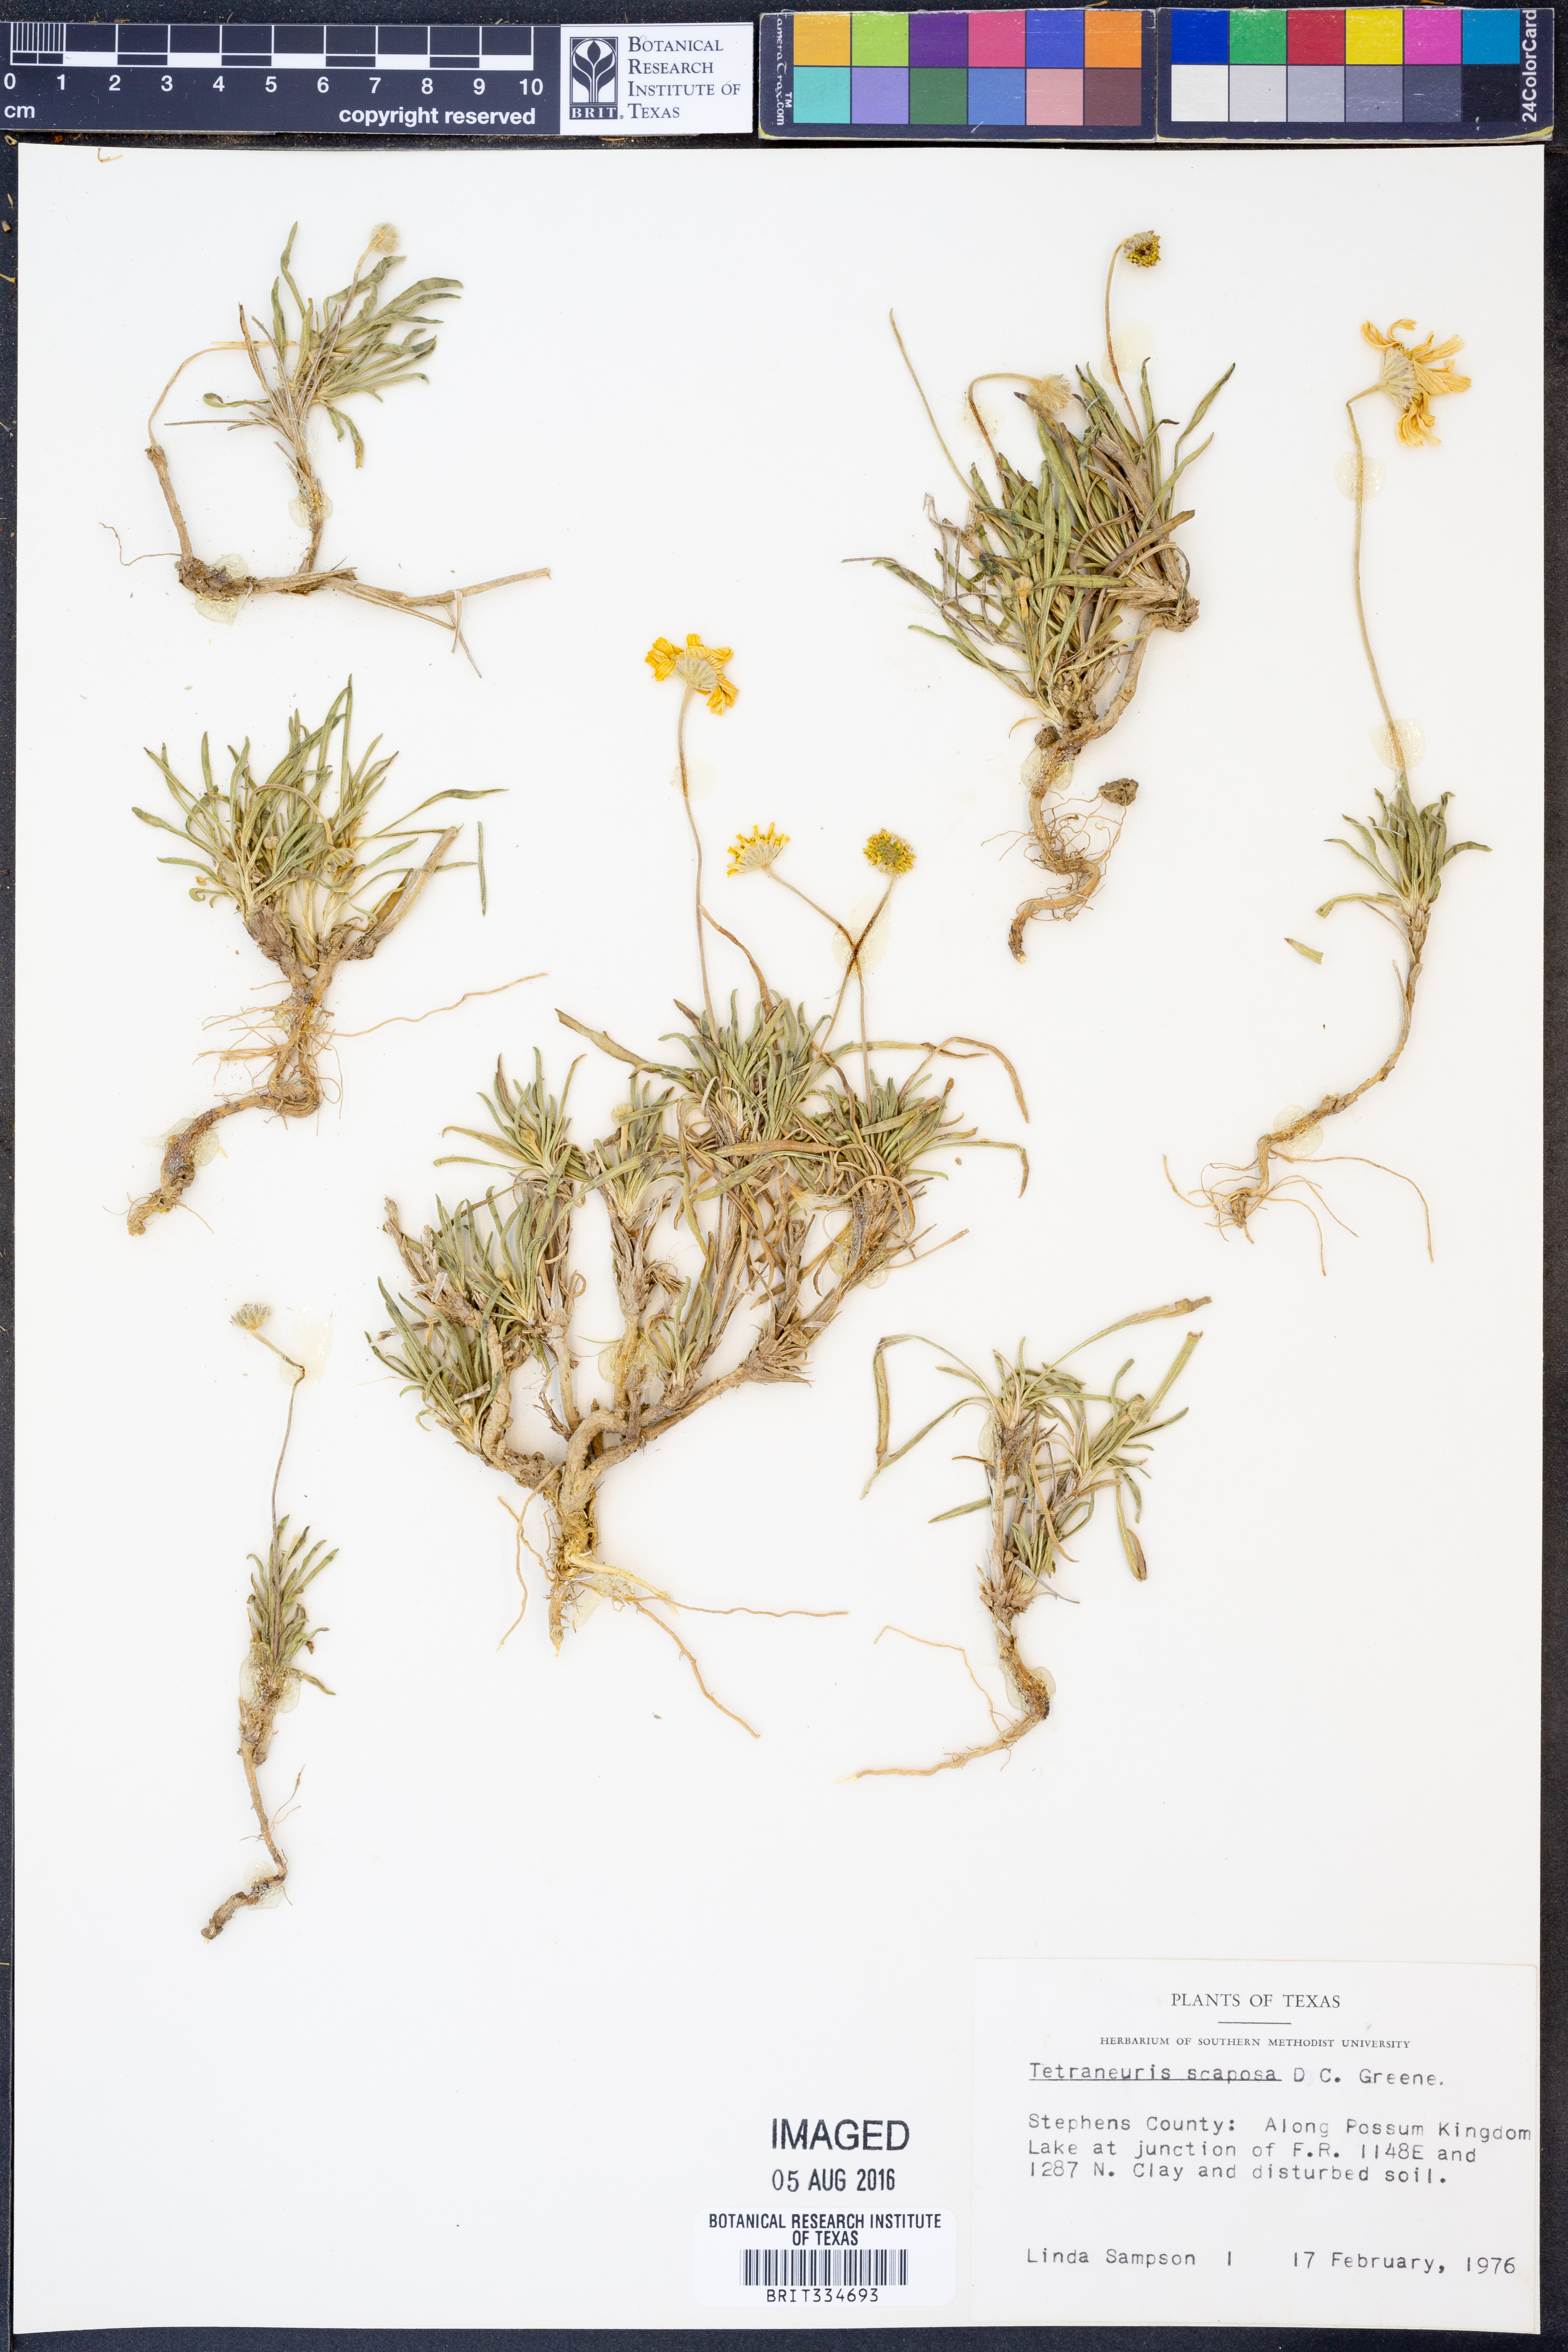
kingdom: Plantae
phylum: Tracheophyta
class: Magnoliopsida
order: Asterales
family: Asteraceae
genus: Tetraneuris
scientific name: Tetraneuris scaposa
